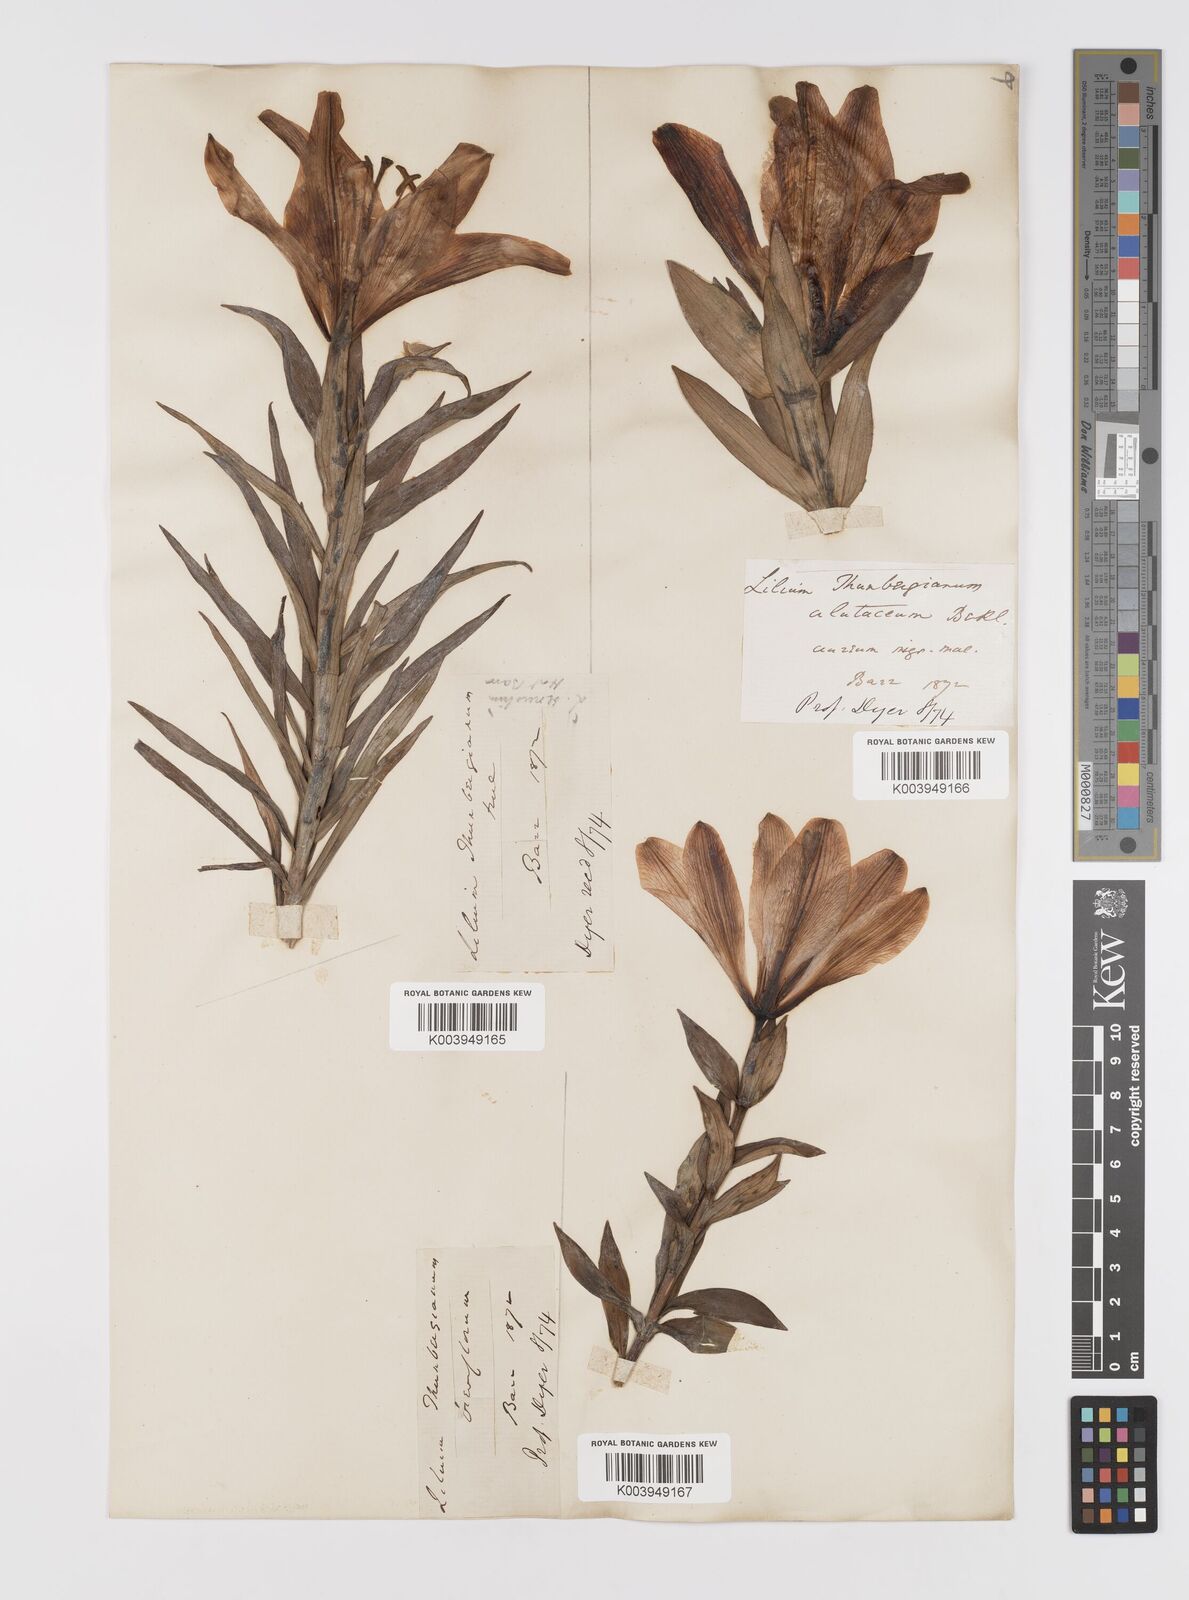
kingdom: Plantae
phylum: Tracheophyta
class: Liliopsida
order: Liliales
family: Liliaceae
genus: Lilium
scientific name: Lilium pensylvanicum
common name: Candlestick lily
